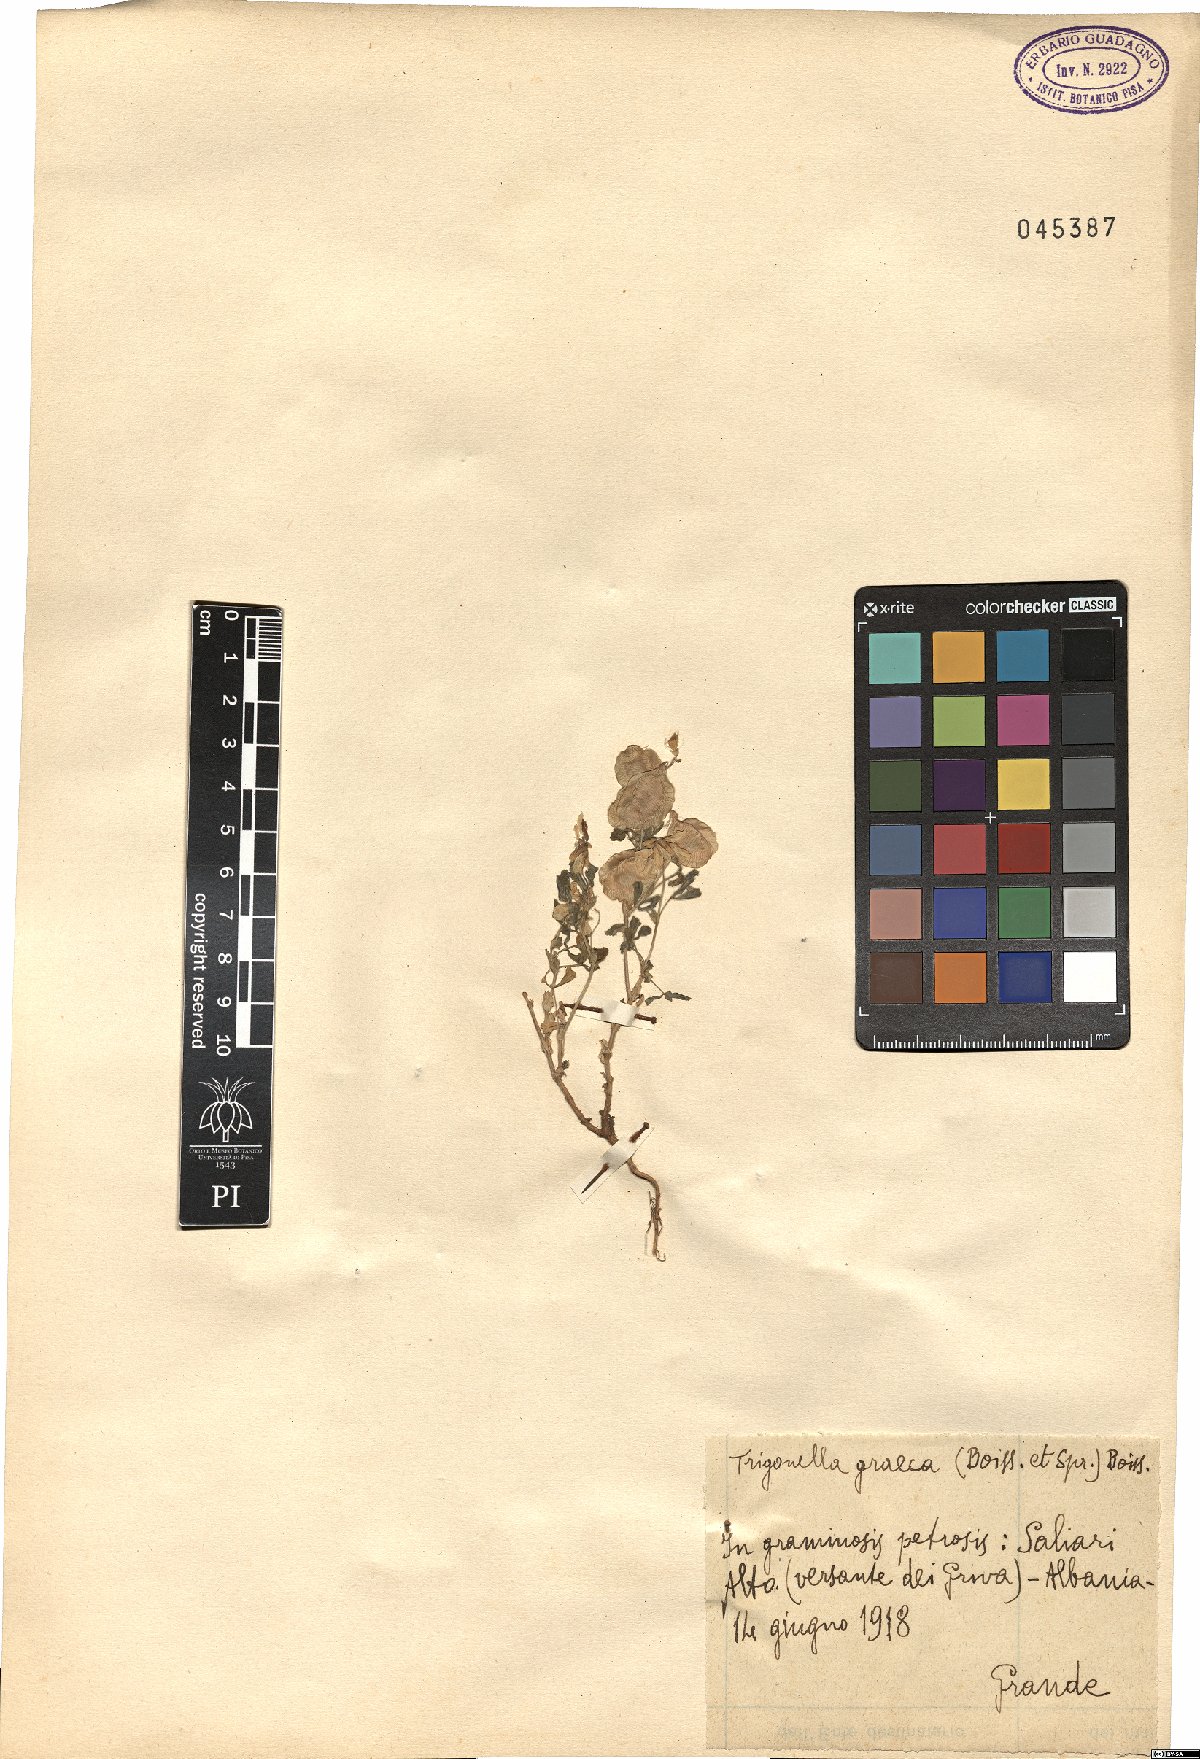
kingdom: Plantae
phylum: Tracheophyta
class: Magnoliopsida
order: Fabales
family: Fabaceae
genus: Trigonella
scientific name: Trigonella graeca
